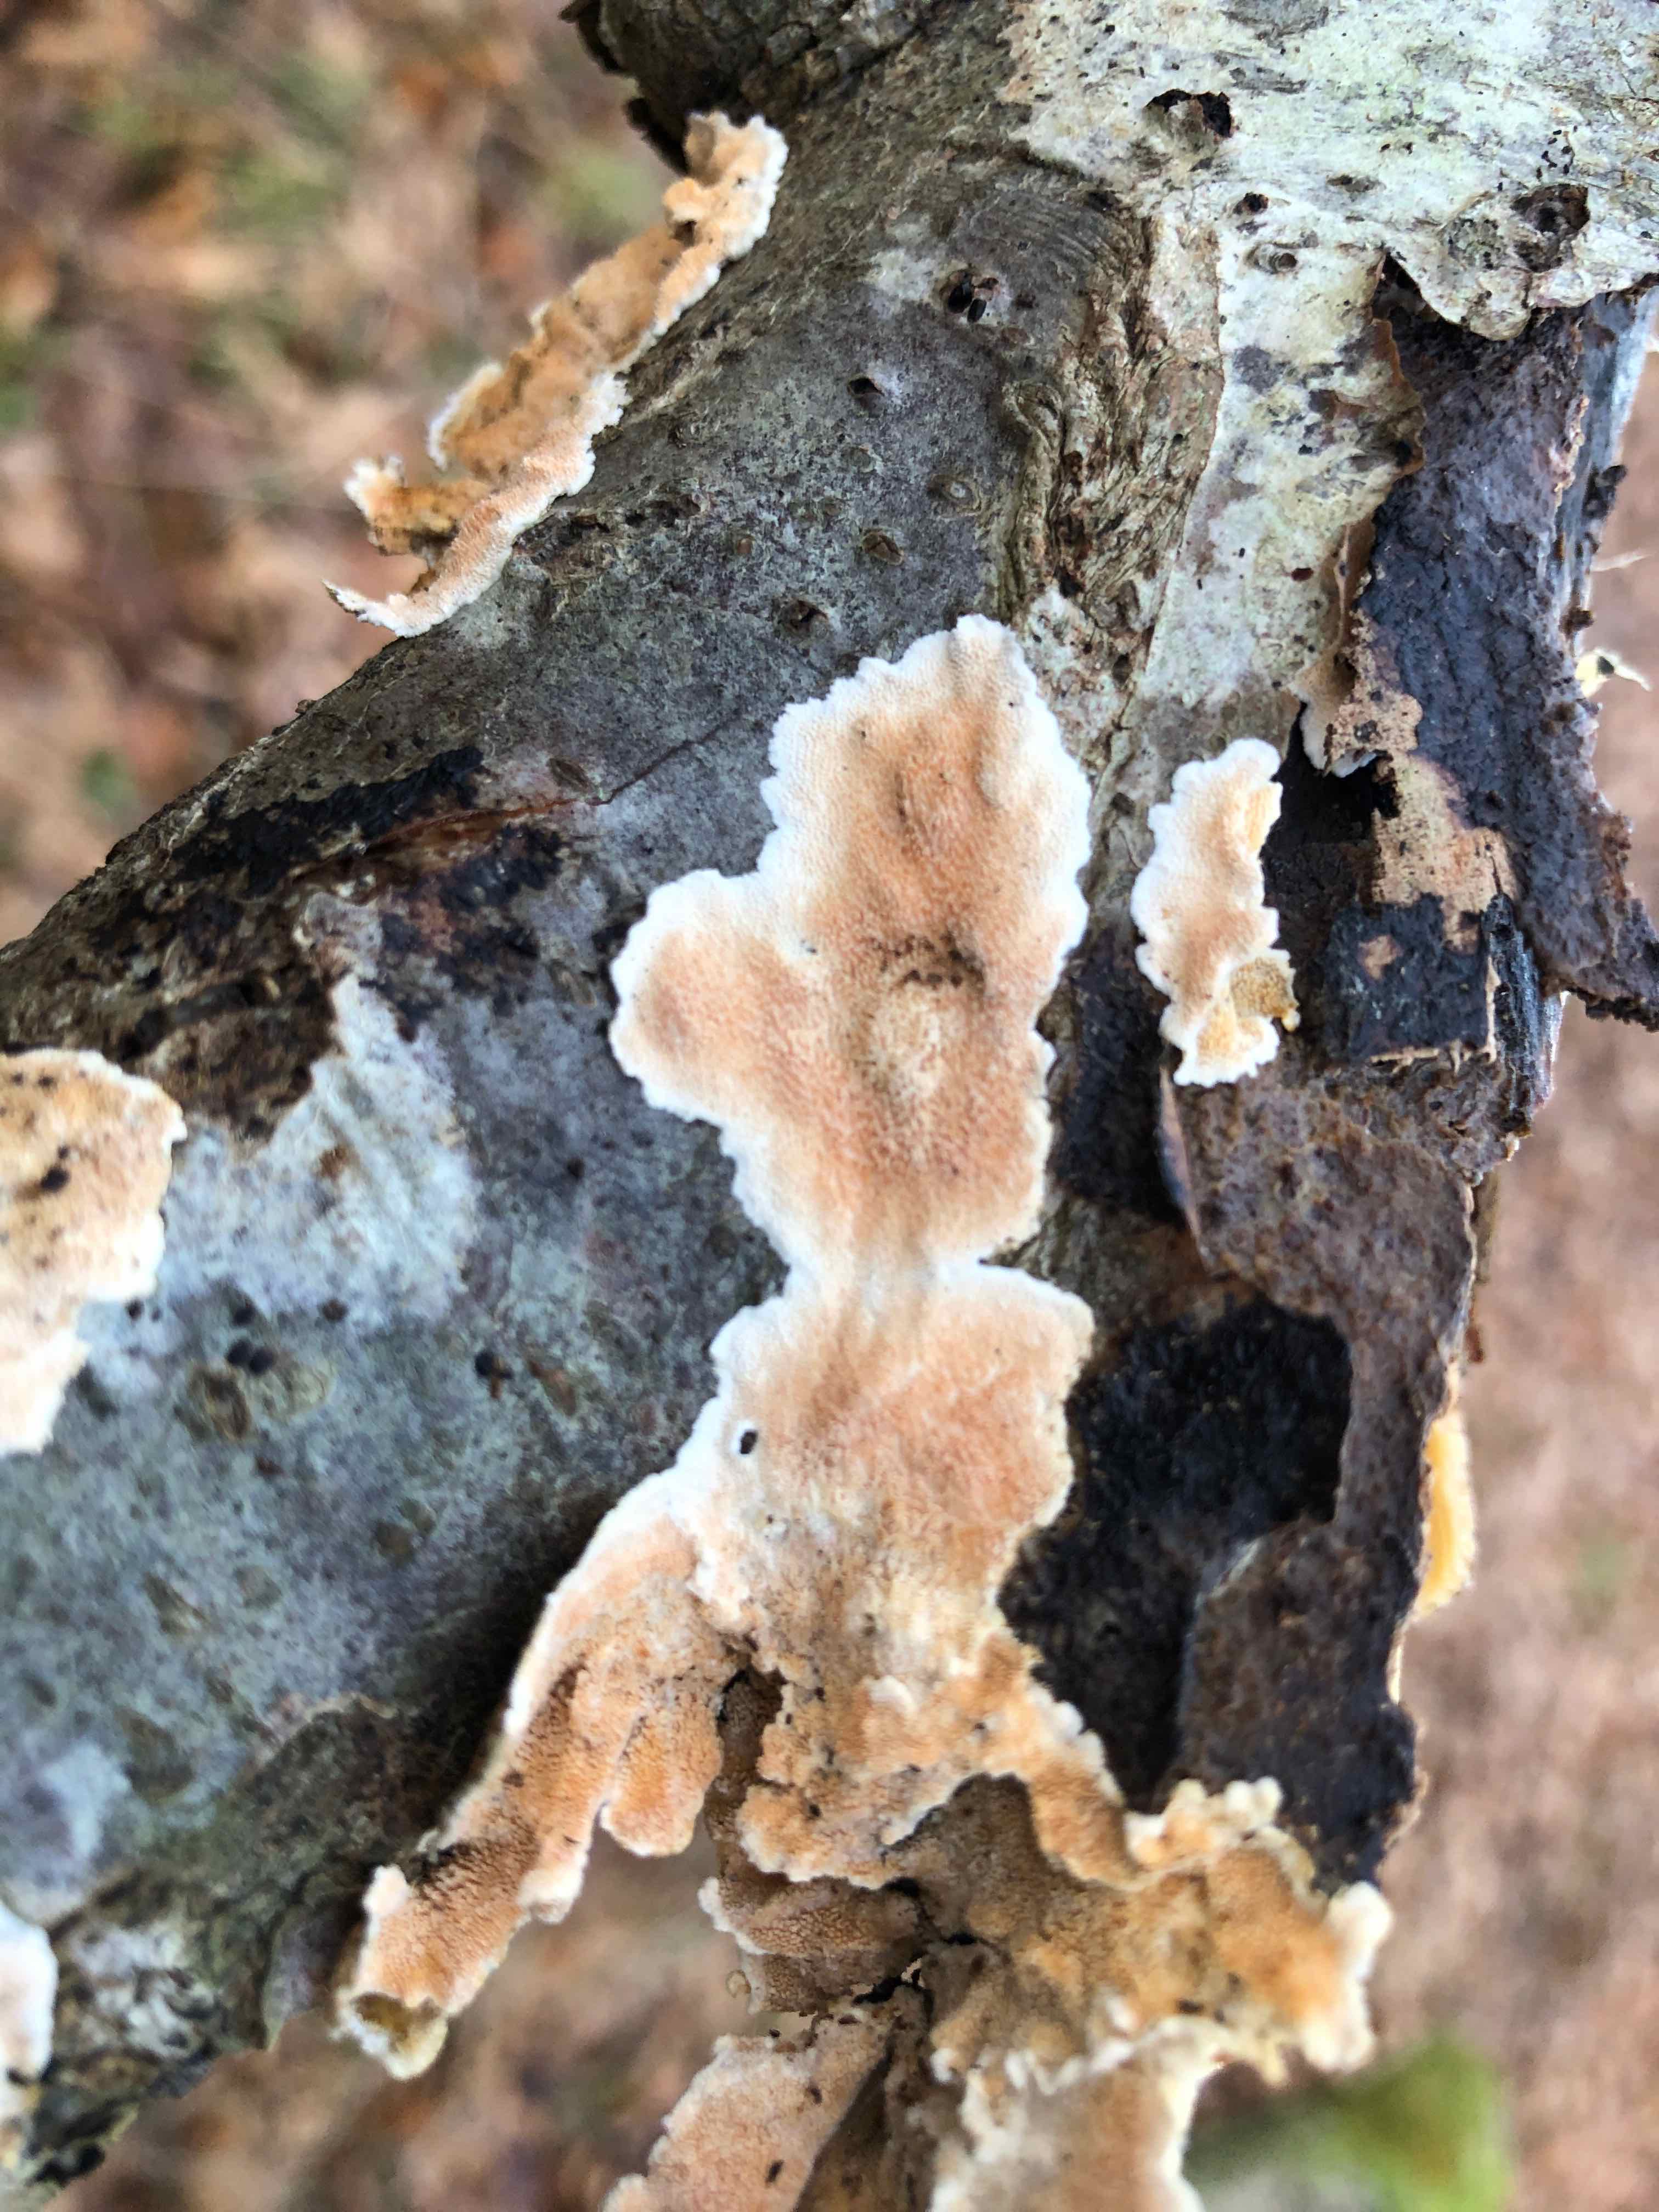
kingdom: Fungi
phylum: Basidiomycota
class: Agaricomycetes
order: Polyporales
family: Steccherinaceae
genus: Steccherinum
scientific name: Steccherinum ochraceum
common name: almindelig skønpig
